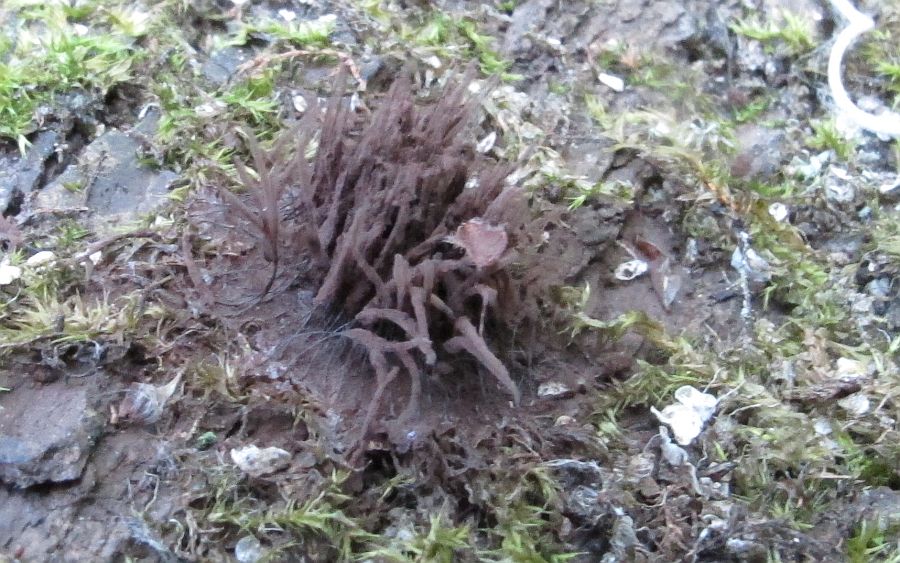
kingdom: Protozoa
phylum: Mycetozoa
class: Myxomycetes
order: Stemonitidales
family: Stemonitidaceae
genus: Stemonitis
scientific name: Stemonitis fusca
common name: sodbrun støvkølle
